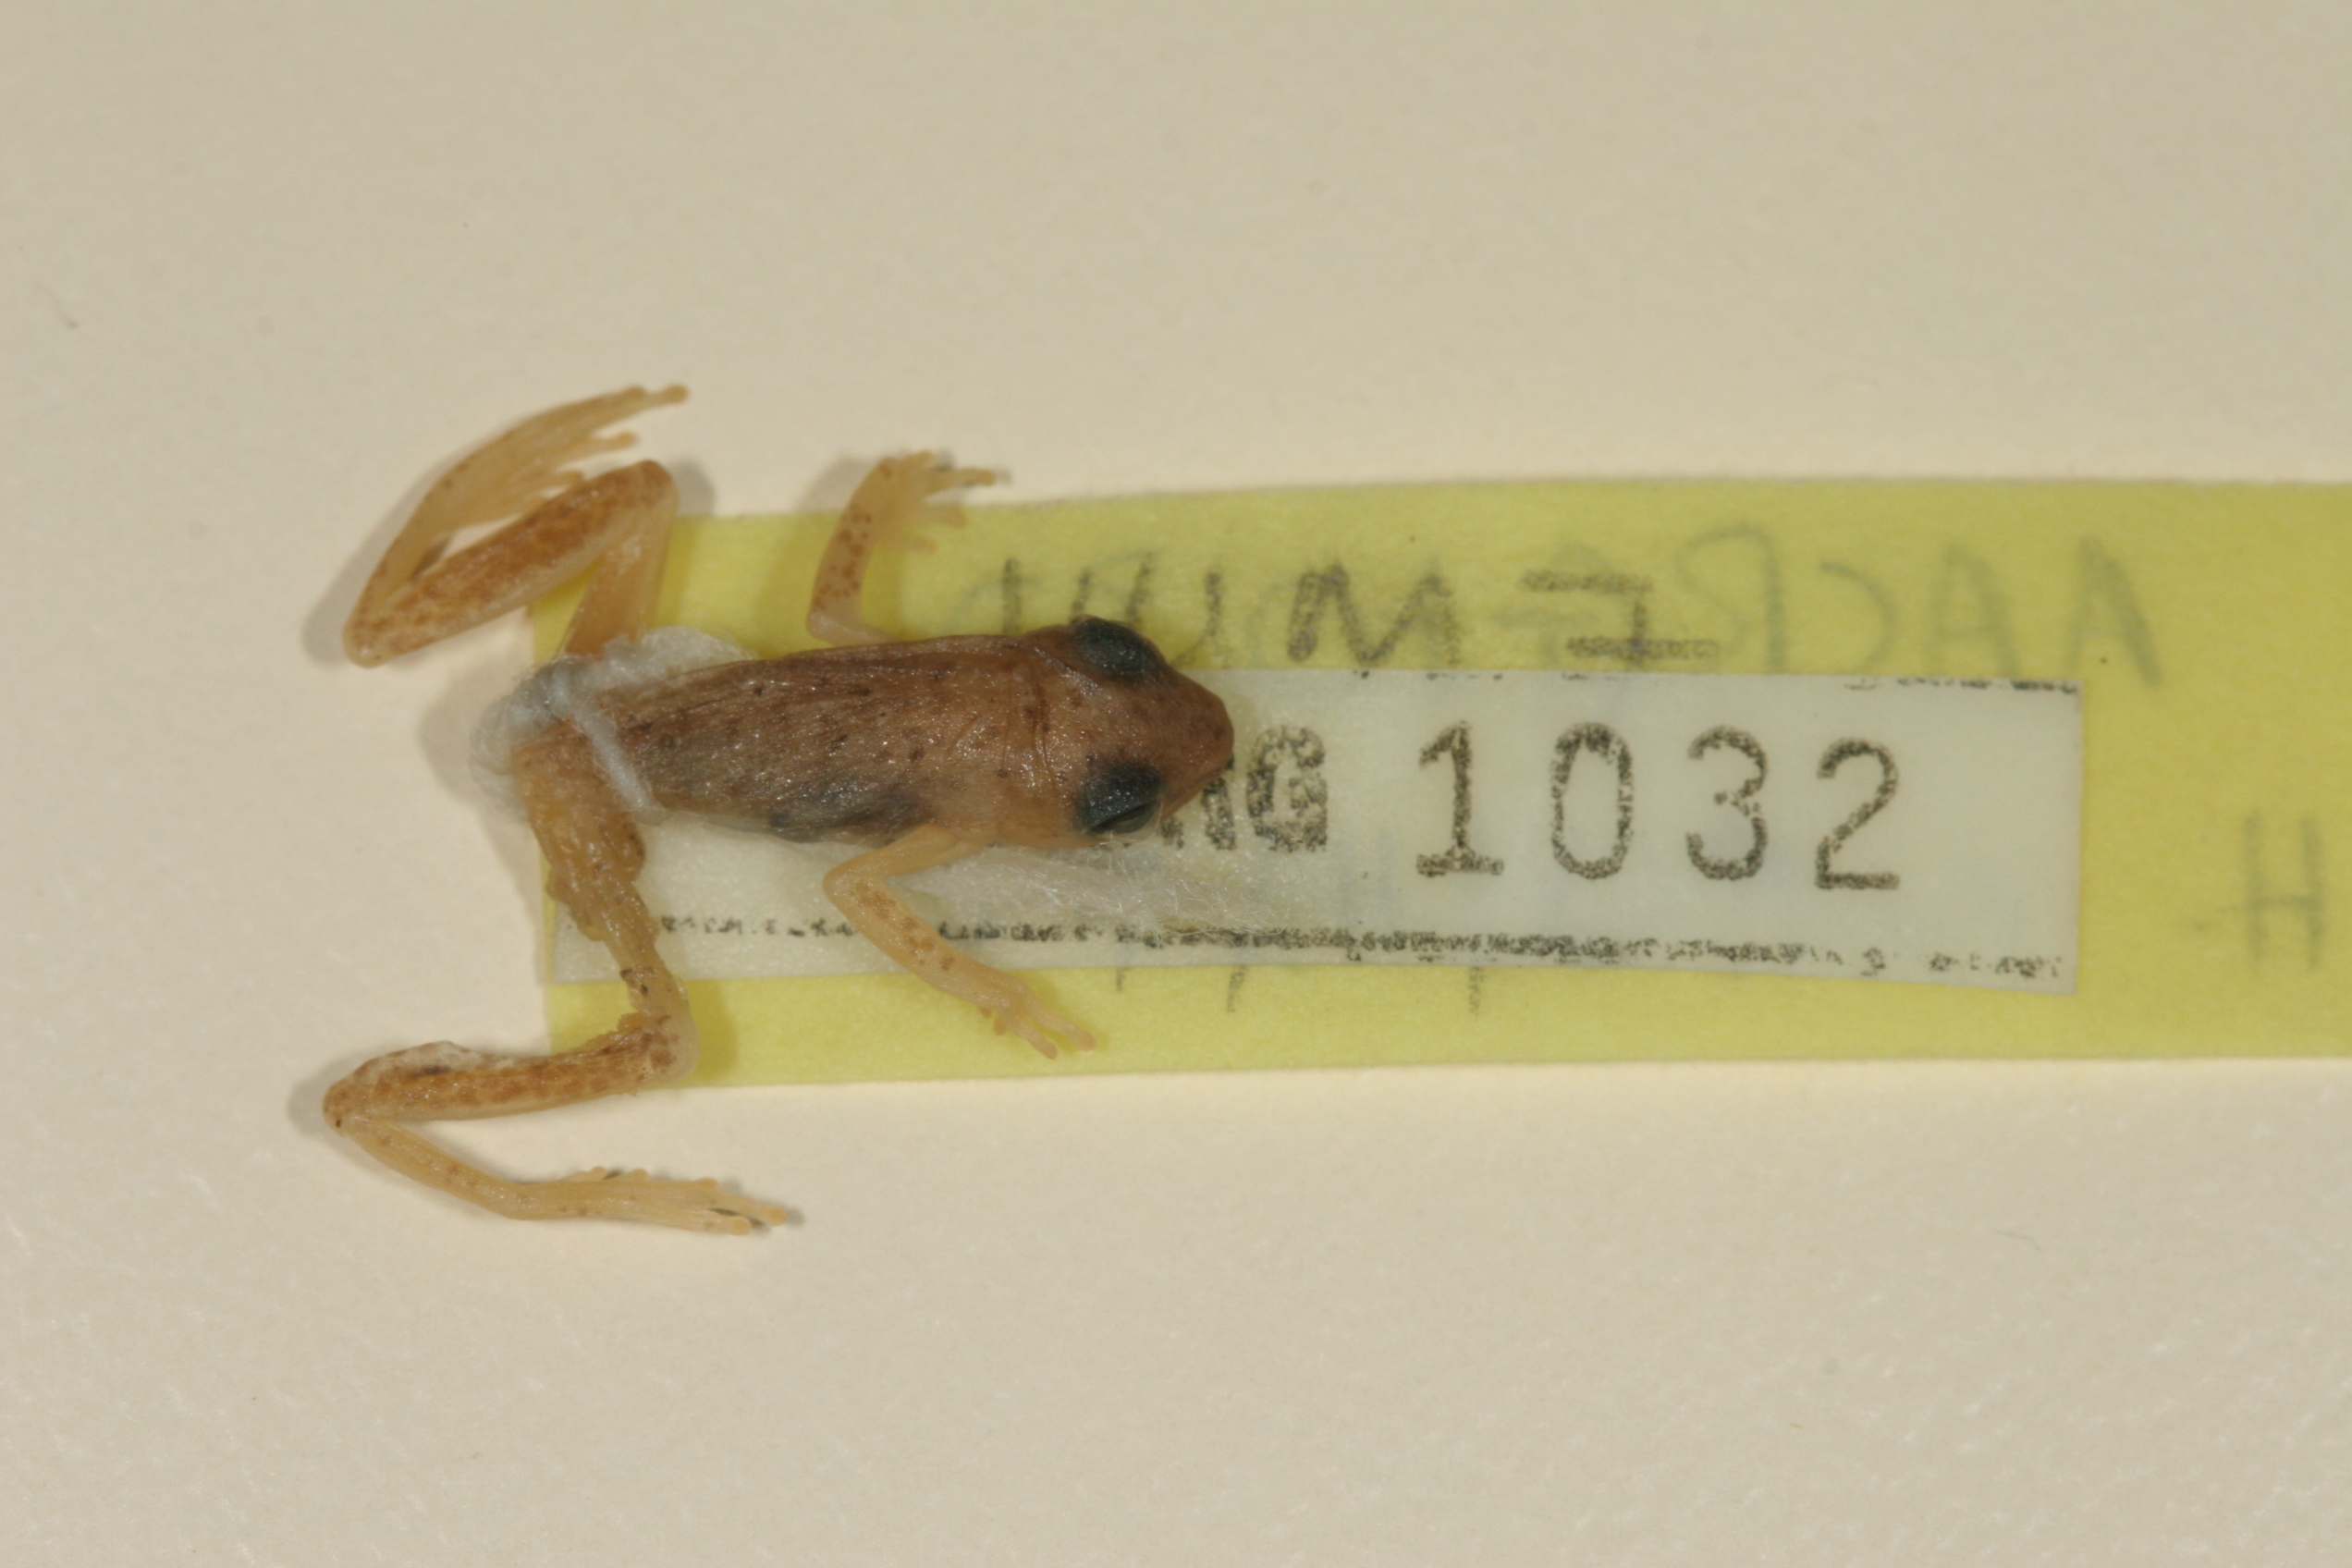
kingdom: Animalia
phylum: Chordata
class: Amphibia
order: Anura
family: Hyperoliidae
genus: Hyperolius
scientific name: Hyperolius nasutus
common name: Sharp-and-blunt-snouted sedge frog
